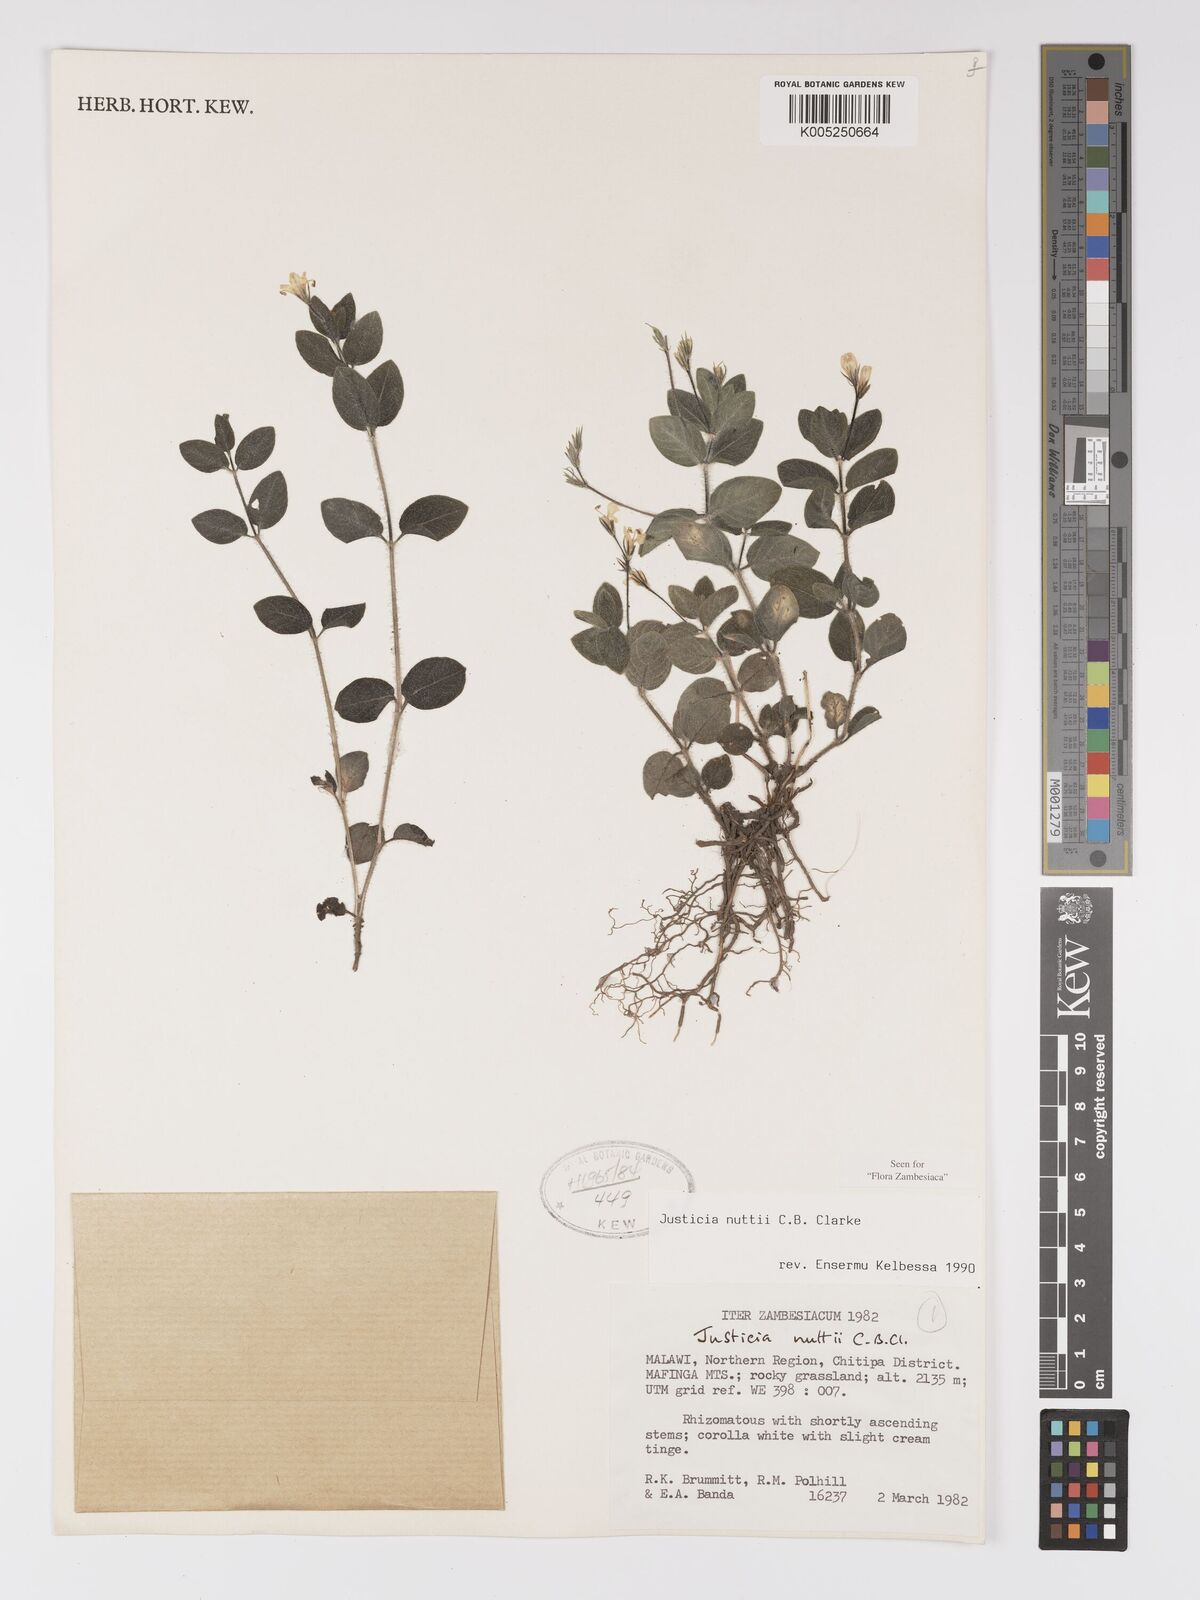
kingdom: Plantae
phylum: Tracheophyta
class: Magnoliopsida
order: Lamiales
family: Acanthaceae
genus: Justicia
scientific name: Justicia nuttii
